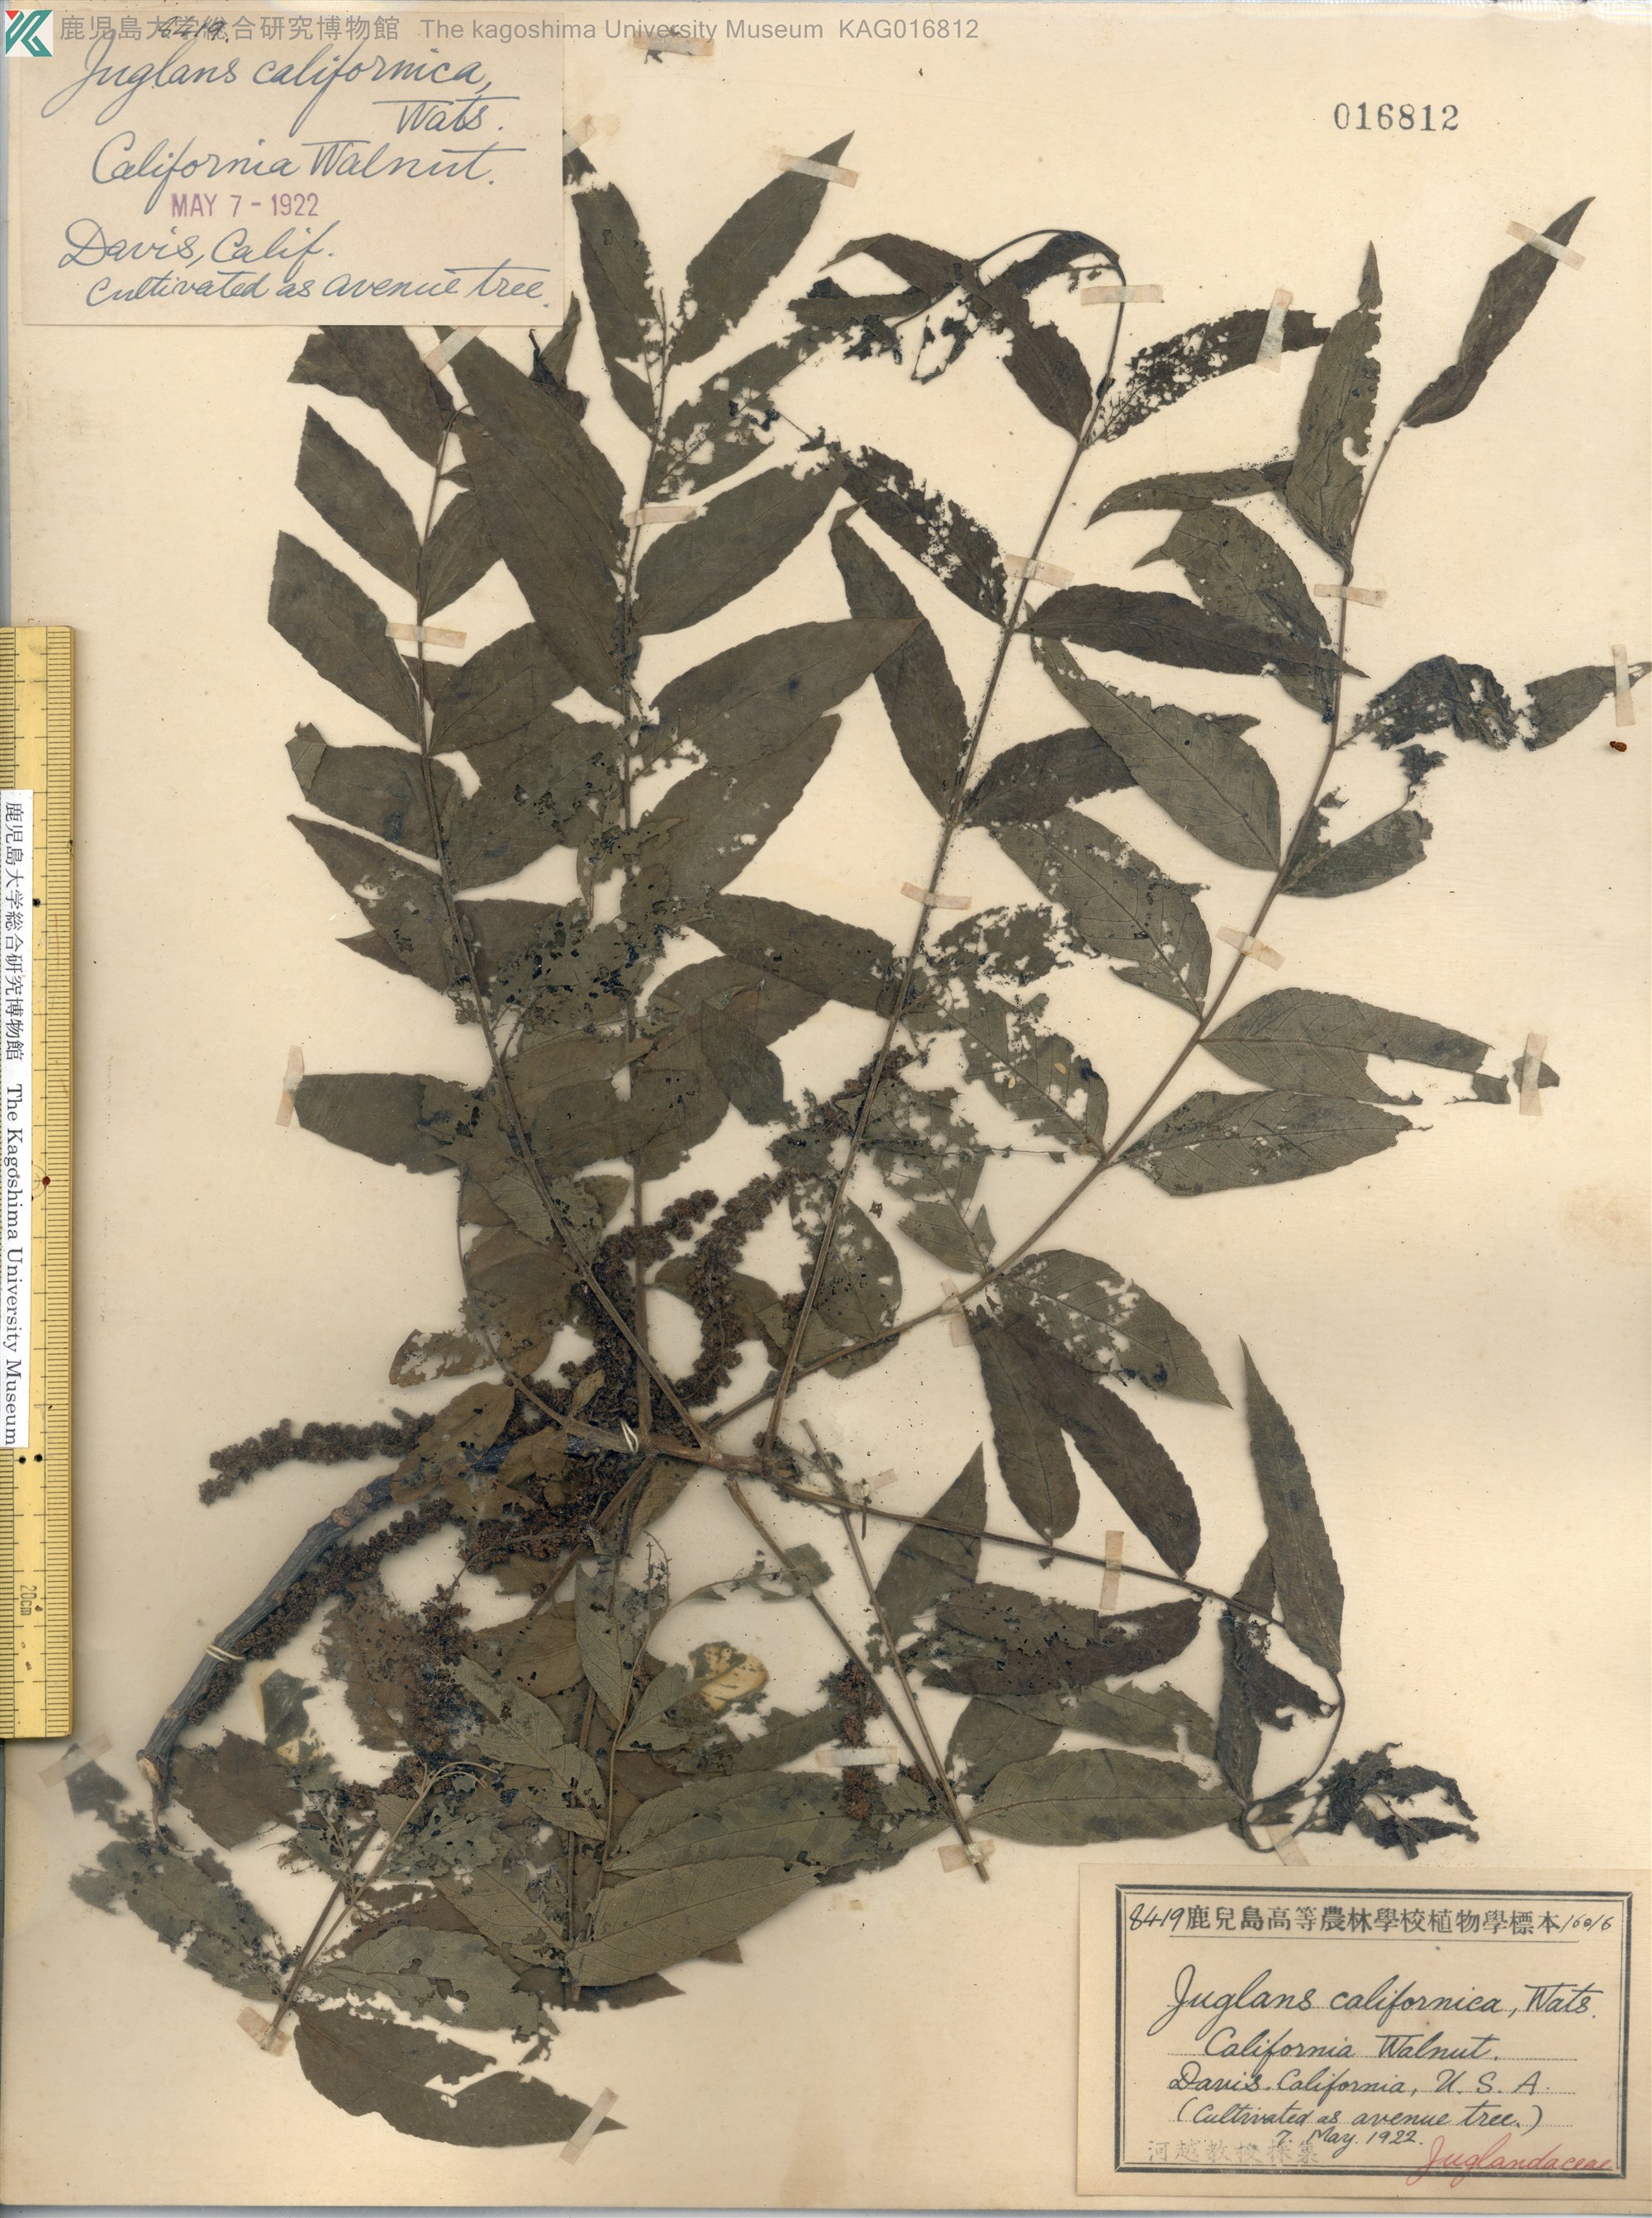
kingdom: Plantae
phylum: Tracheophyta
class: Magnoliopsida
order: Fagales
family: Juglandaceae
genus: Juglans
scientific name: Juglans californica
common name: Southern california black walnut
